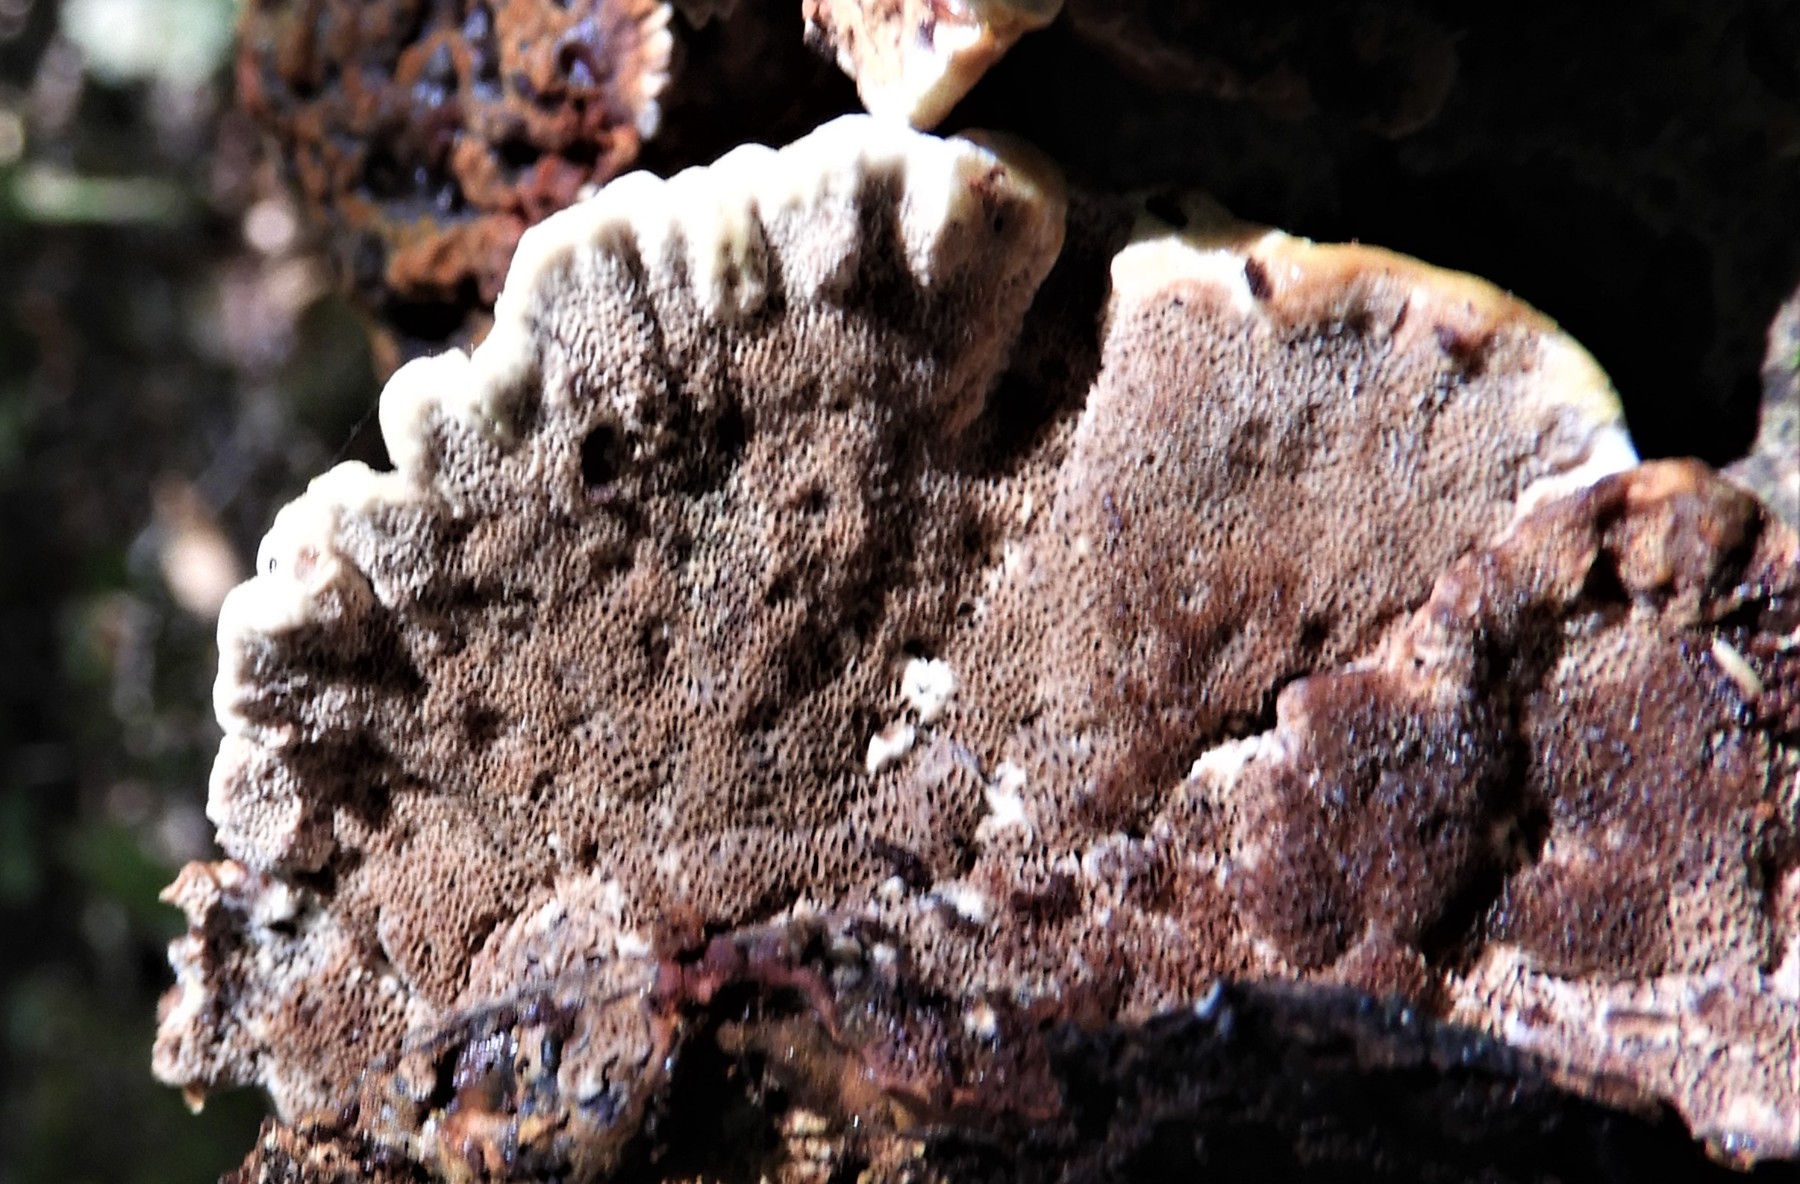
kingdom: Fungi
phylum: Basidiomycota
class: Agaricomycetes
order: Hymenochaetales
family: Hymenochaetaceae
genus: Xanthoporia
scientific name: Xanthoporia radiata
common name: elle-spejlporesvamp
